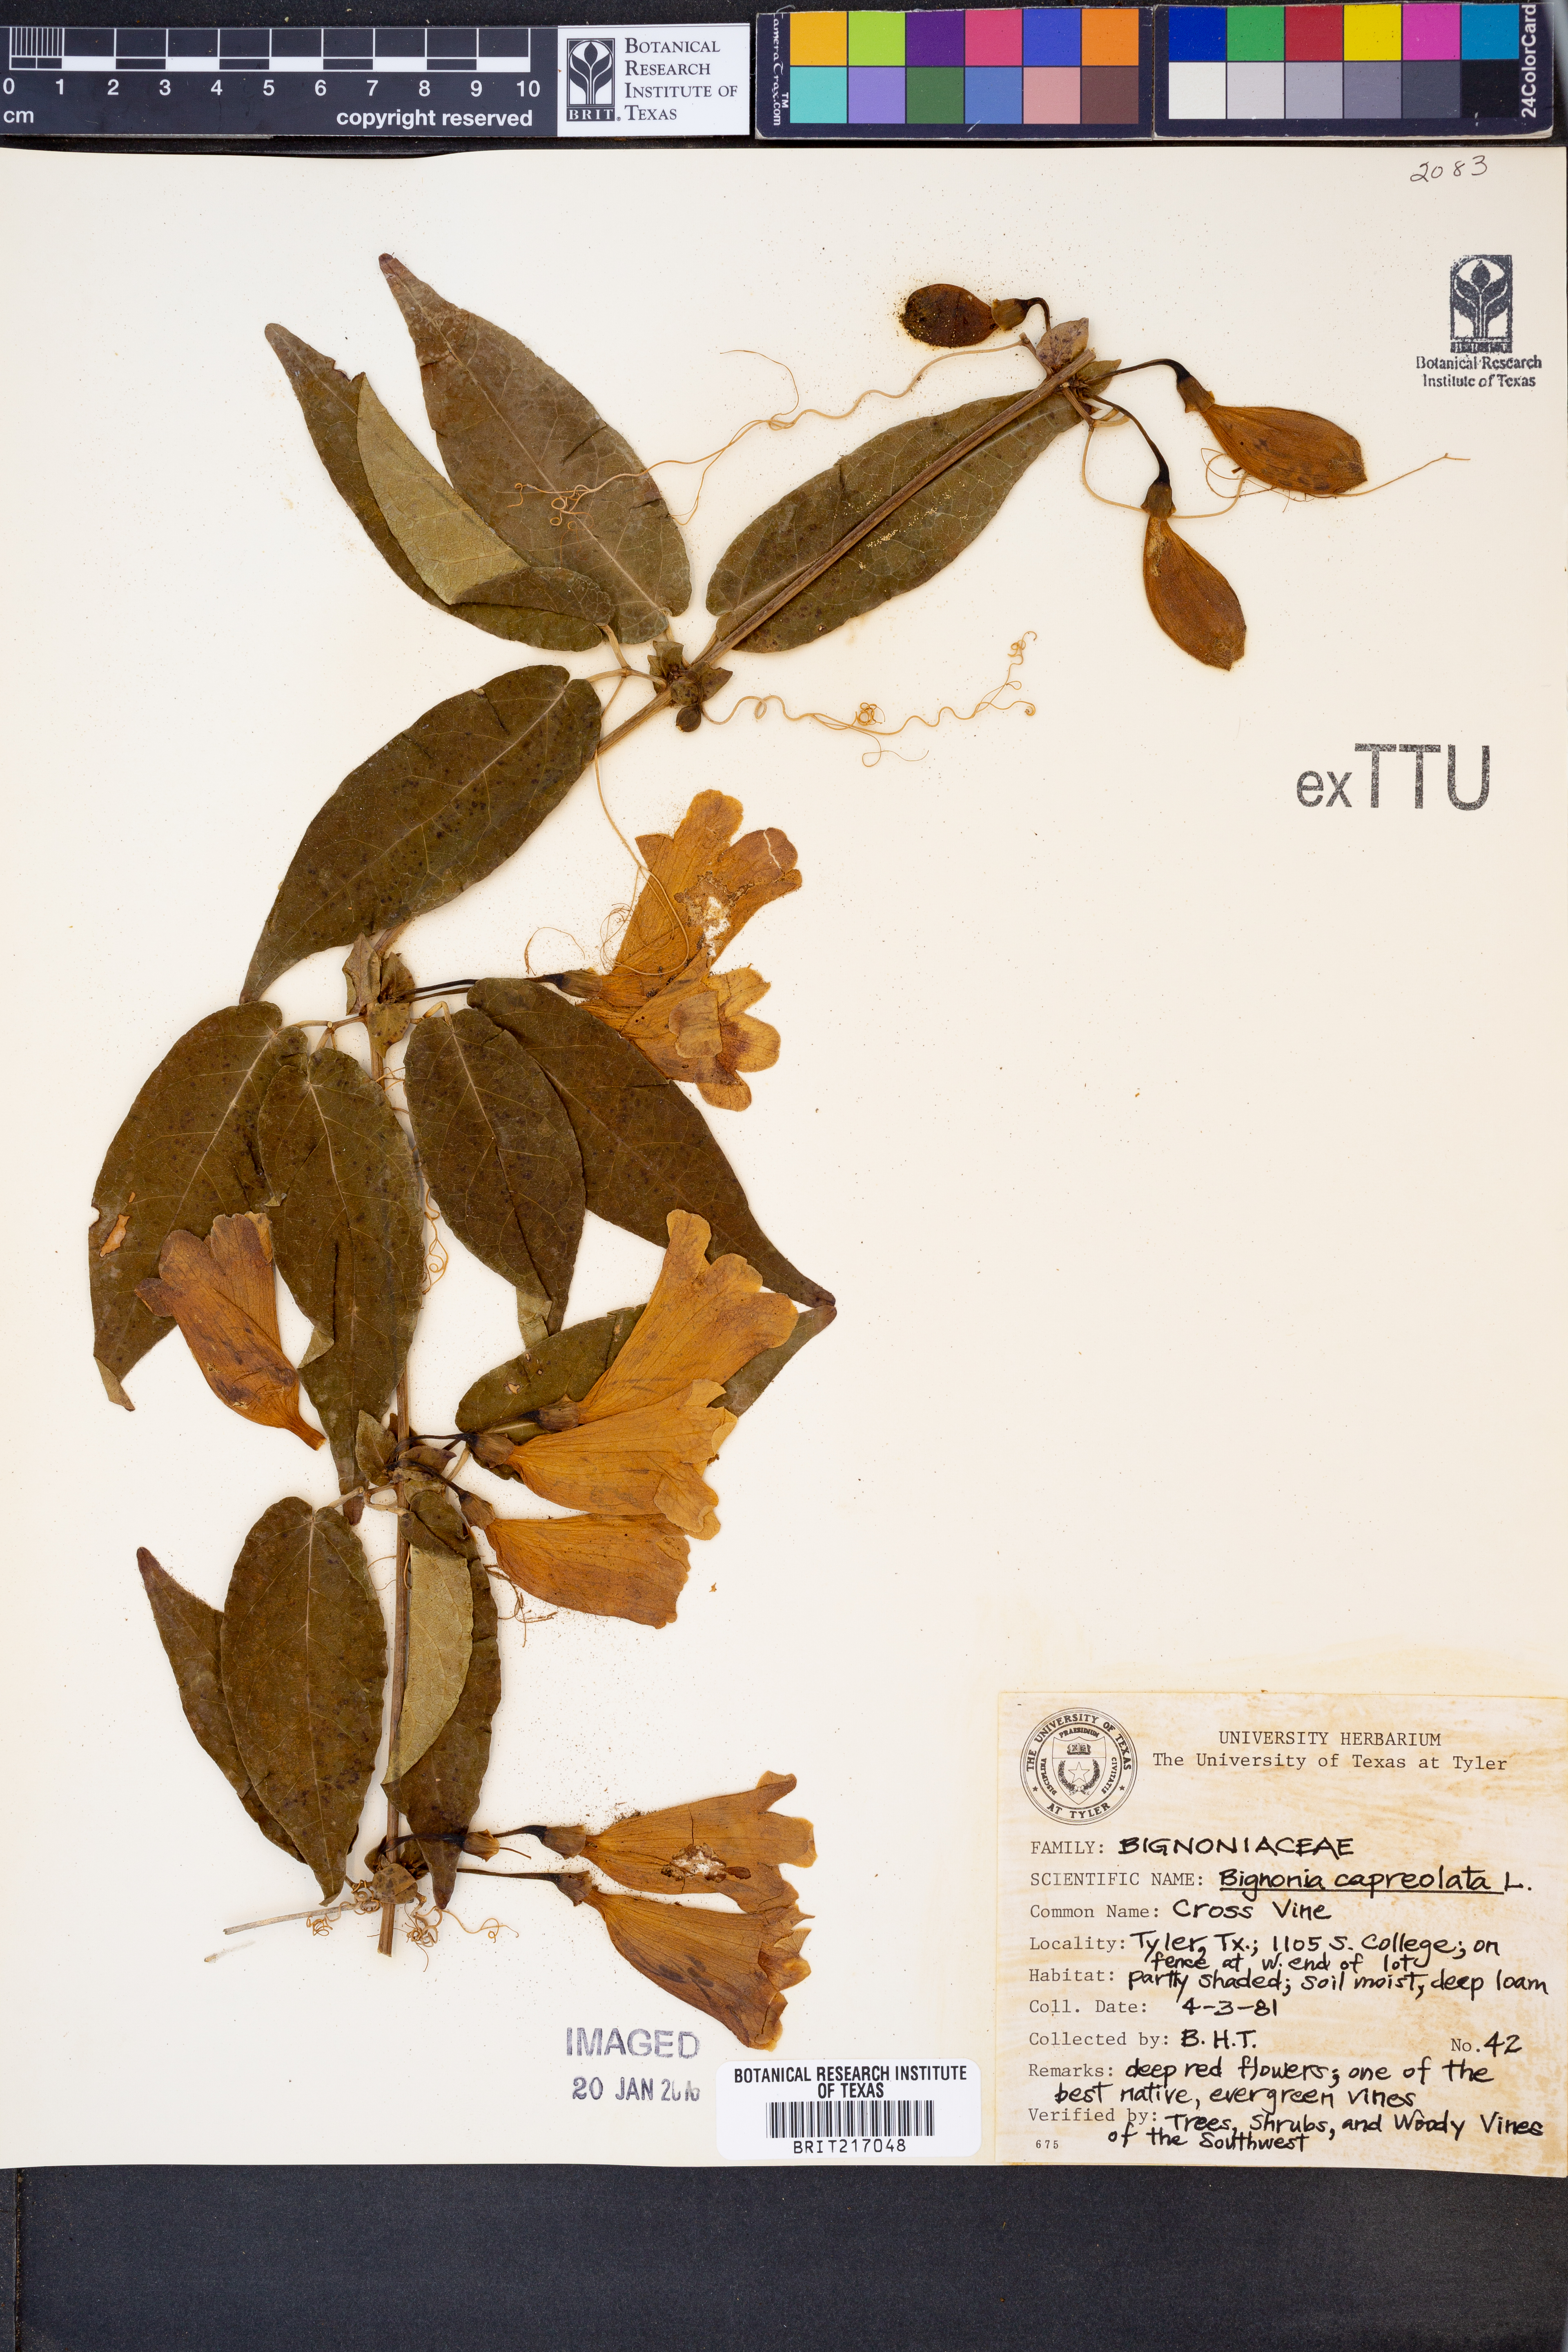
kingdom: Plantae
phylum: Tracheophyta
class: Magnoliopsida
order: Lamiales
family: Bignoniaceae
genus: Bignonia
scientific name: Bignonia capreolata
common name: Crossvine
